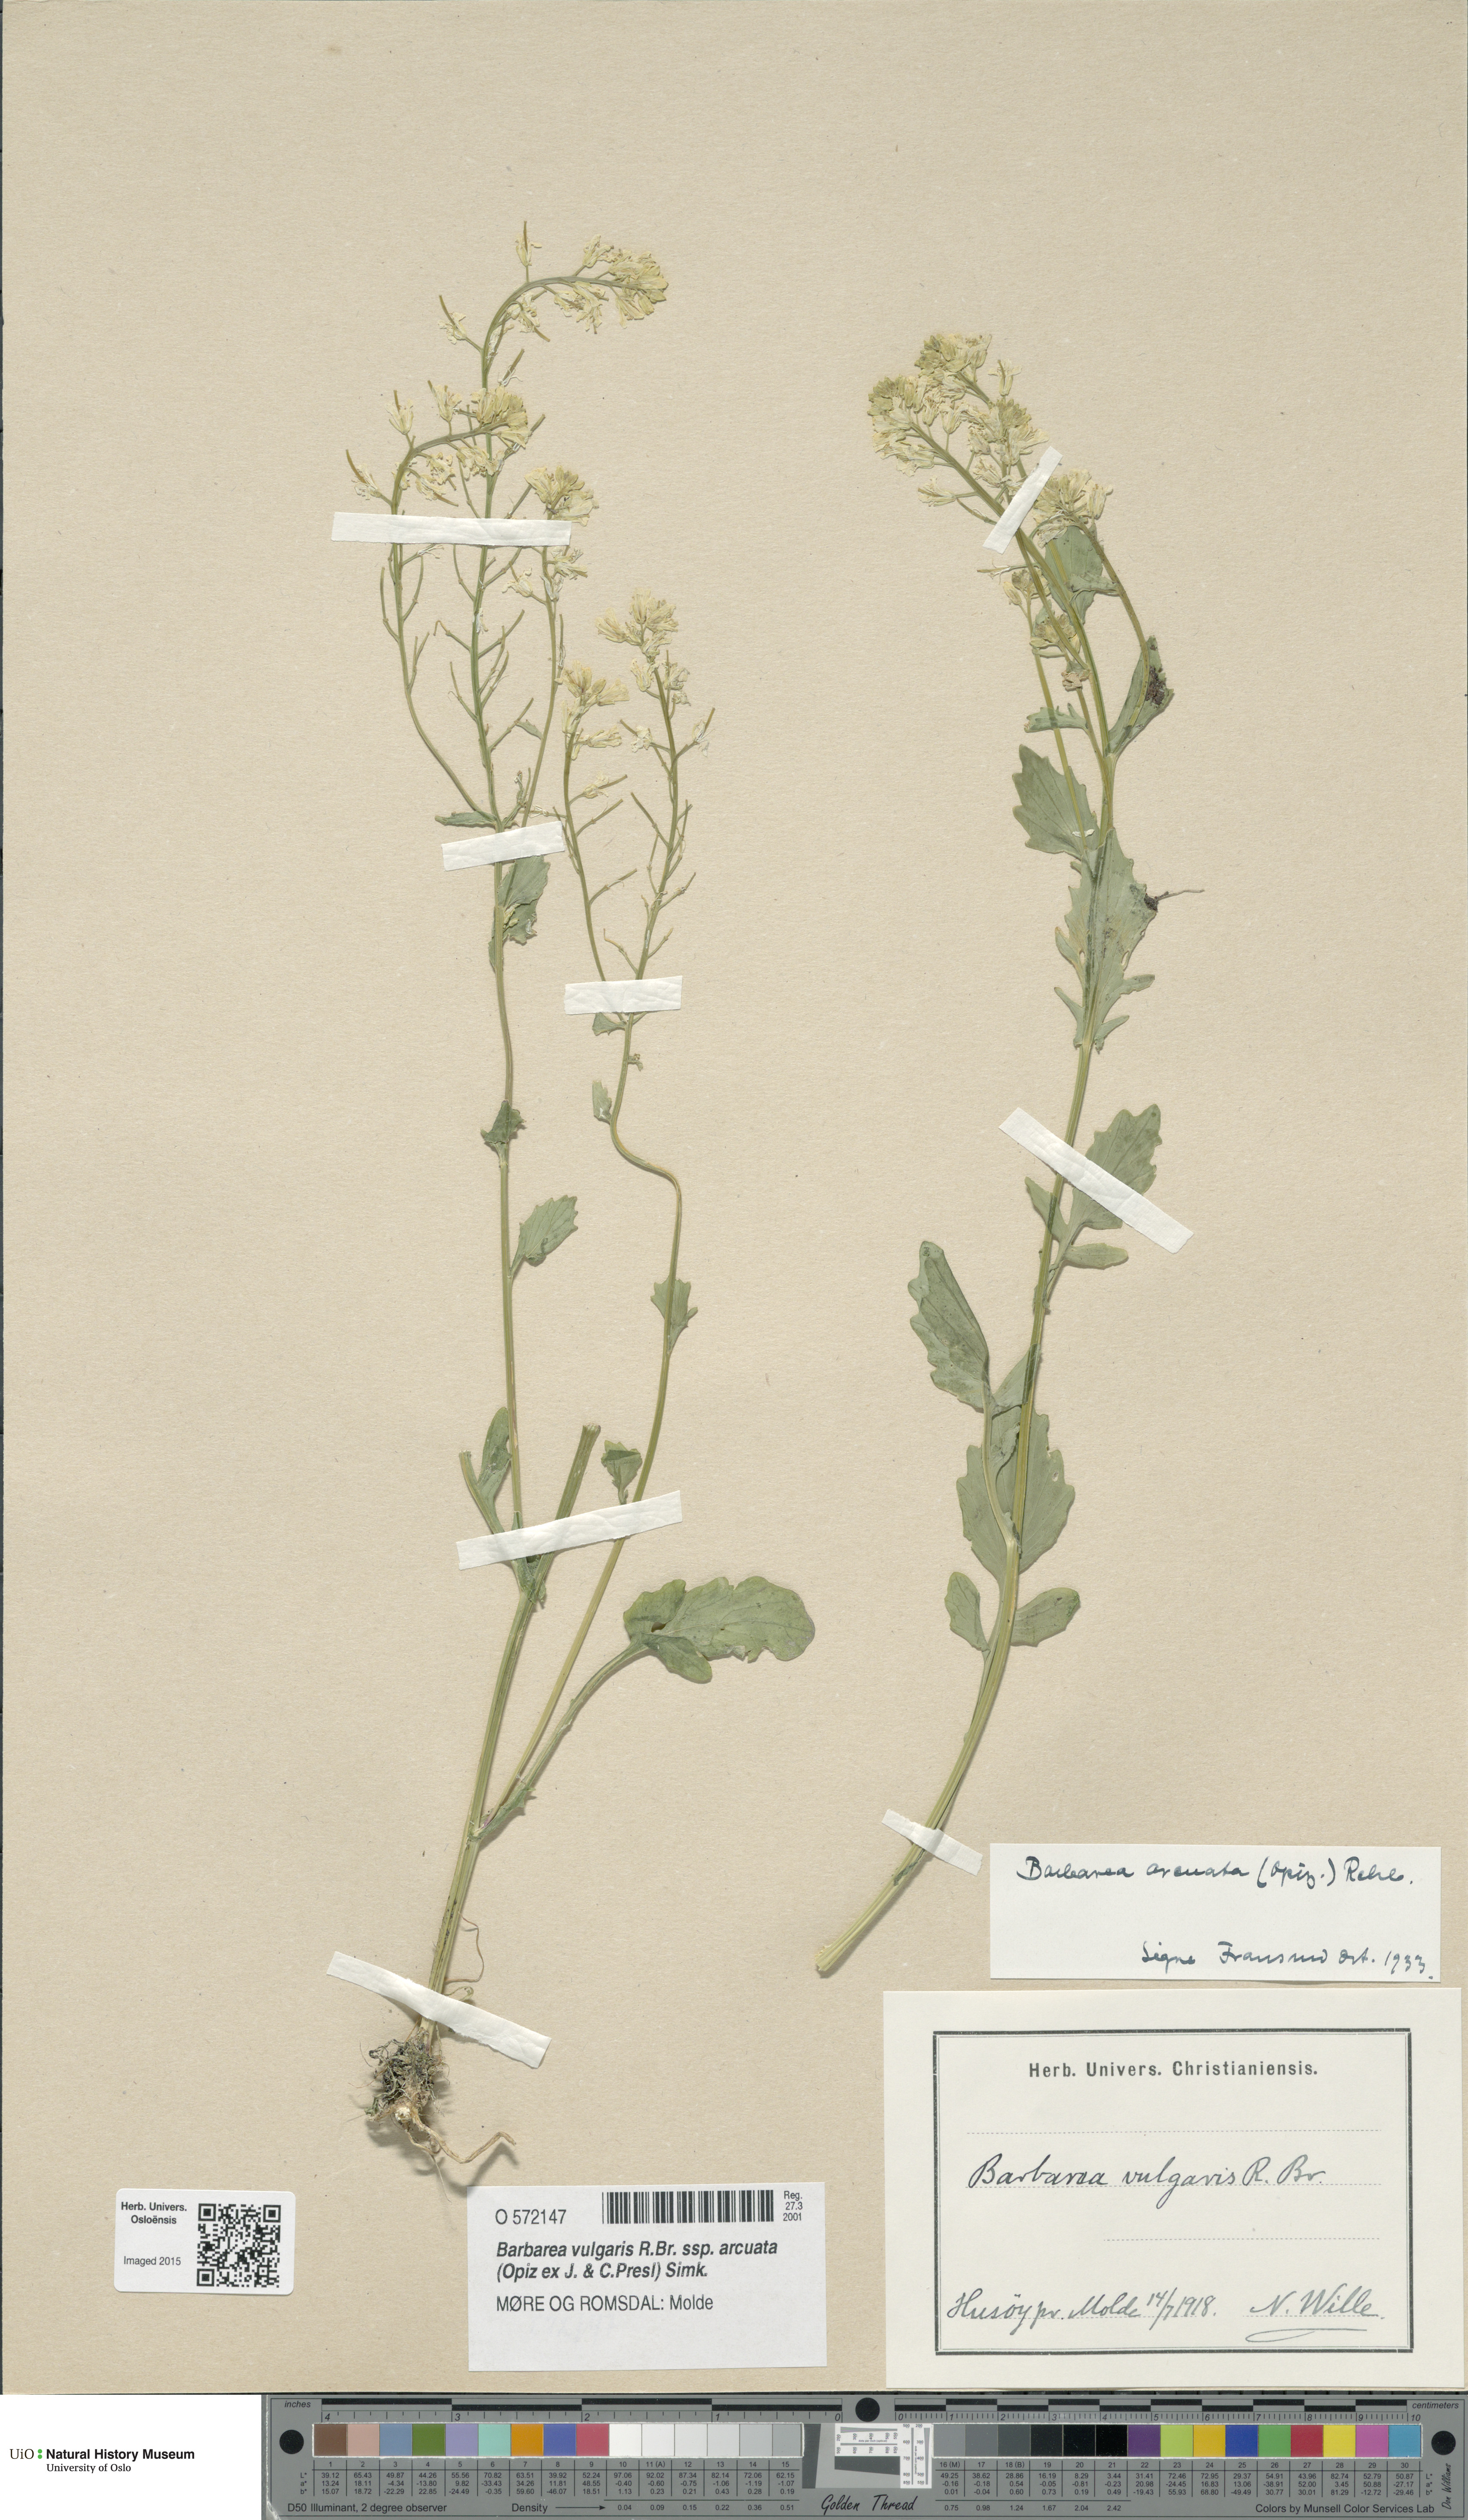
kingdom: Plantae
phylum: Tracheophyta
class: Magnoliopsida
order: Brassicales
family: Brassicaceae
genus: Barbarea
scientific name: Barbarea vulgaris
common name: Cressy-greens
